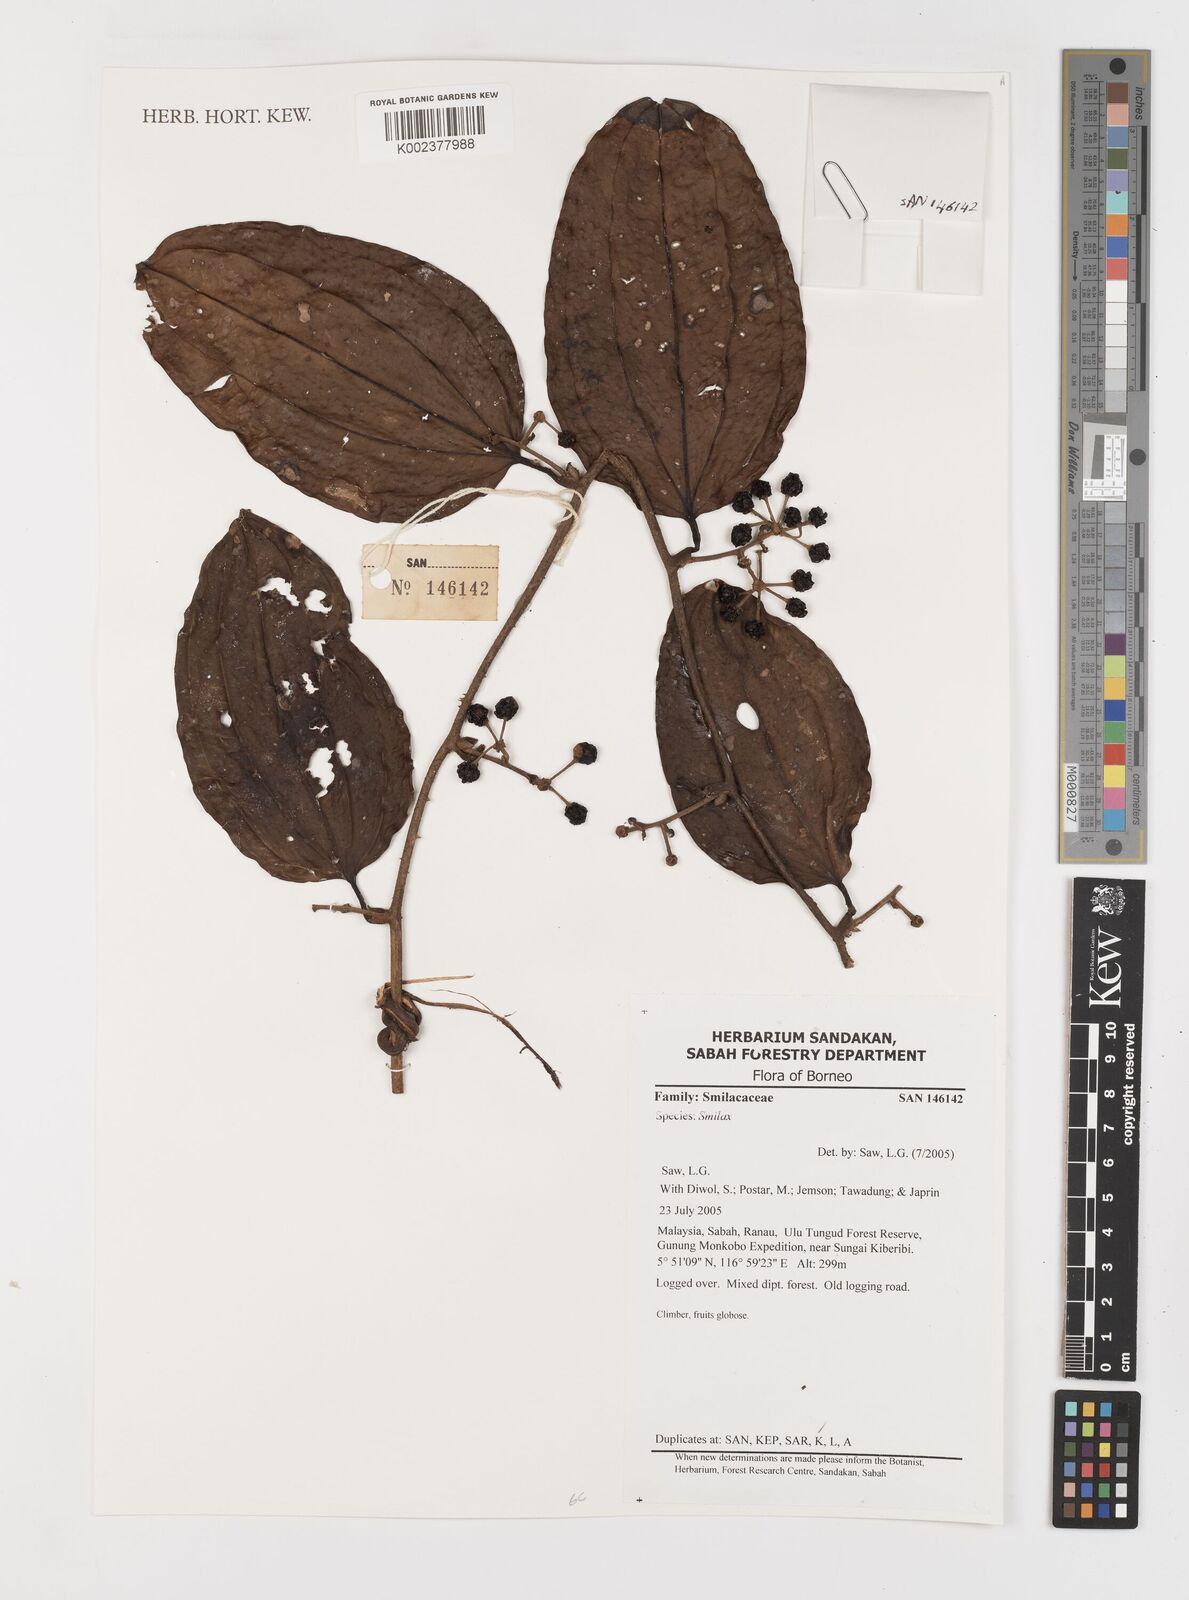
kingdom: Plantae
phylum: Tracheophyta
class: Liliopsida
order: Liliales
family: Smilacaceae
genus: Smilax
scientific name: Smilax
